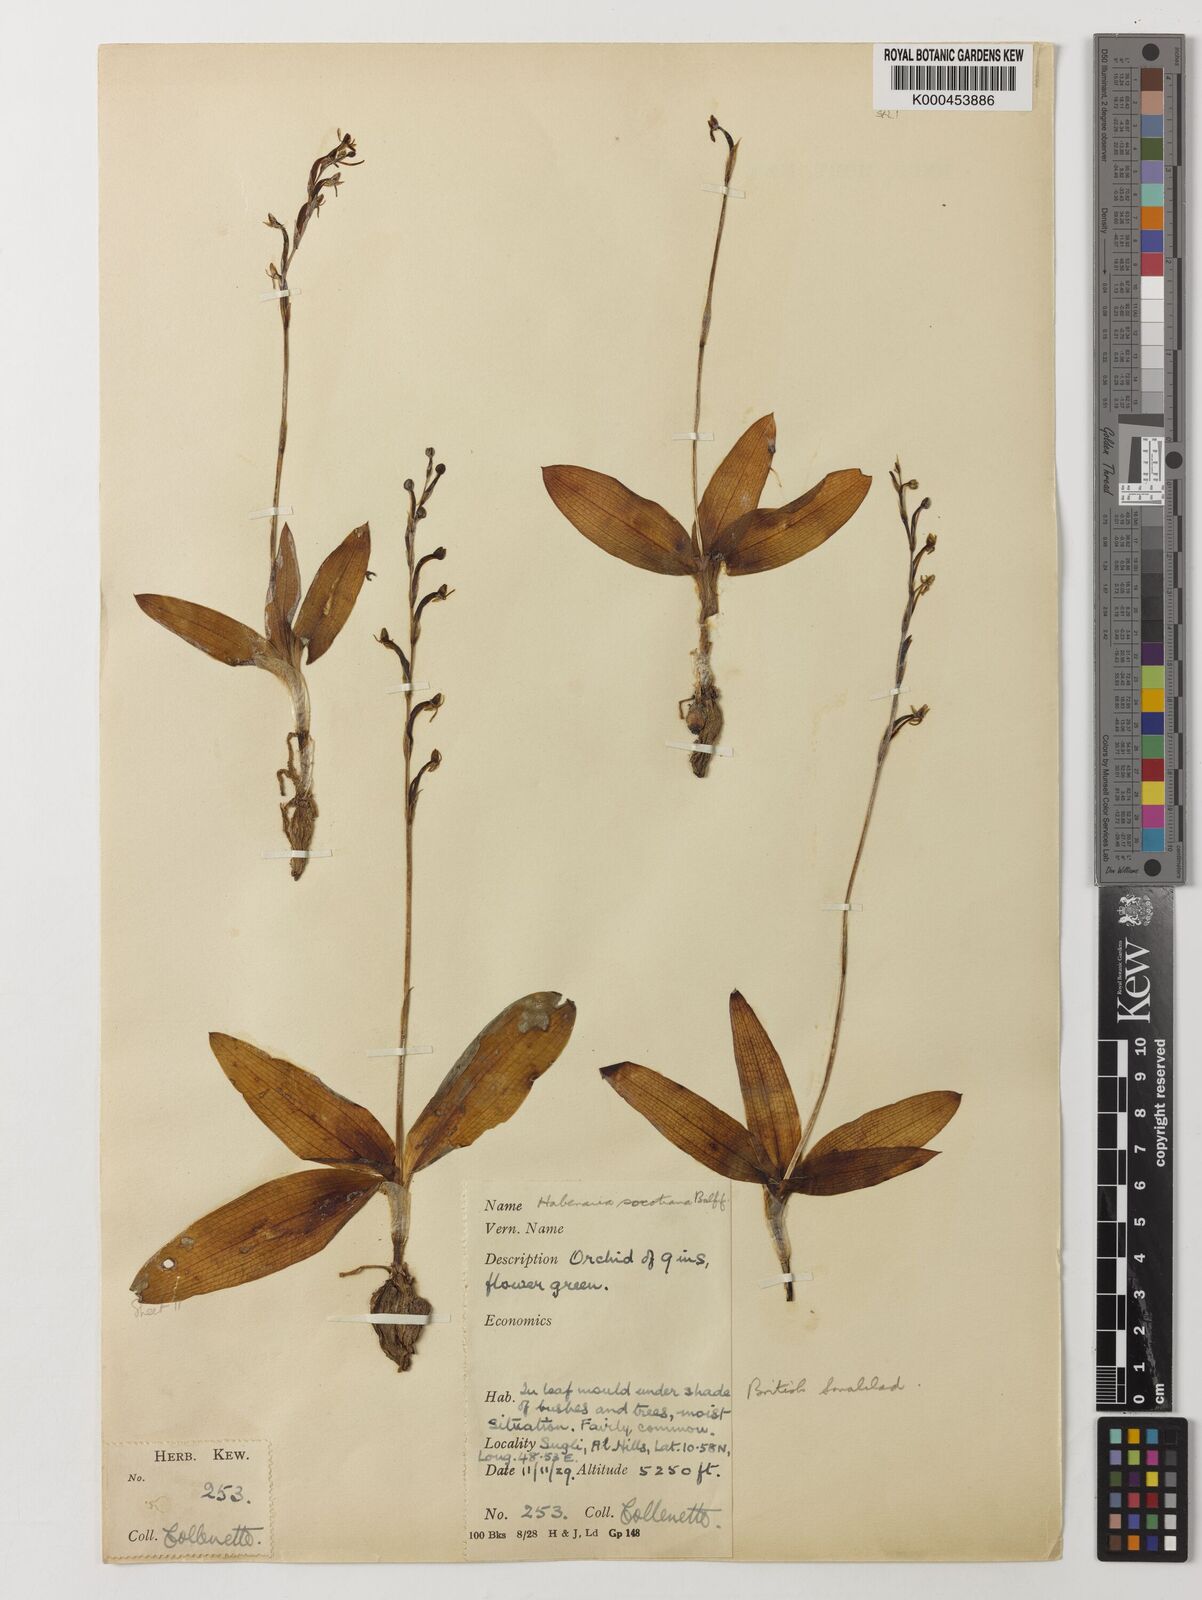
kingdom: Plantae
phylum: Tracheophyta
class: Liliopsida
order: Asparagales
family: Orchidaceae
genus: Habenaria
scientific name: Habenaria socotrana
